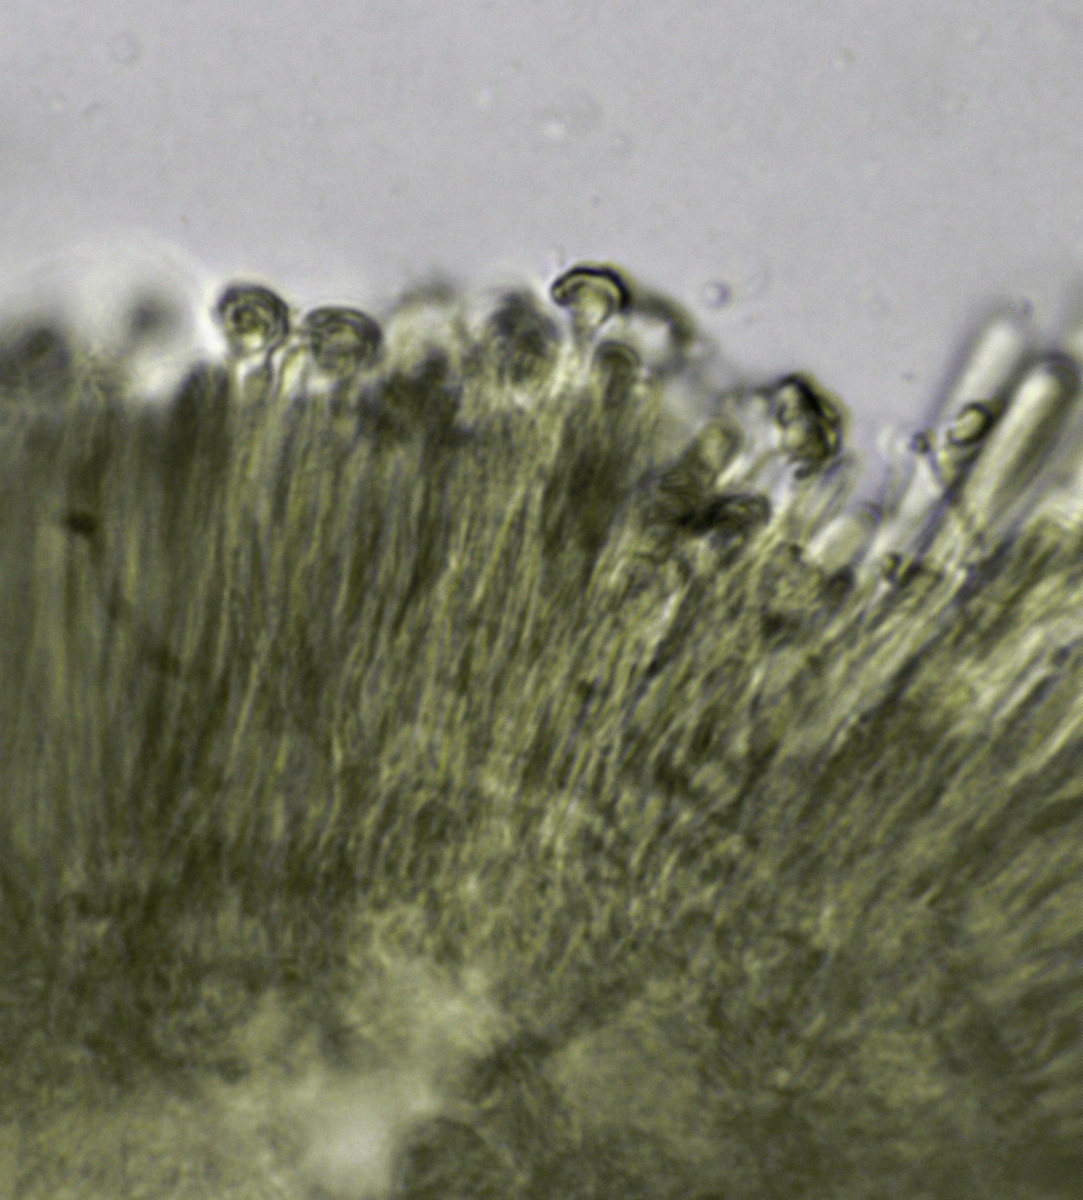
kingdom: Fungi
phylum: Ascomycota
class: Orbiliomycetes
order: Orbiliales
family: Orbiliaceae
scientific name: Orbiliaceae
